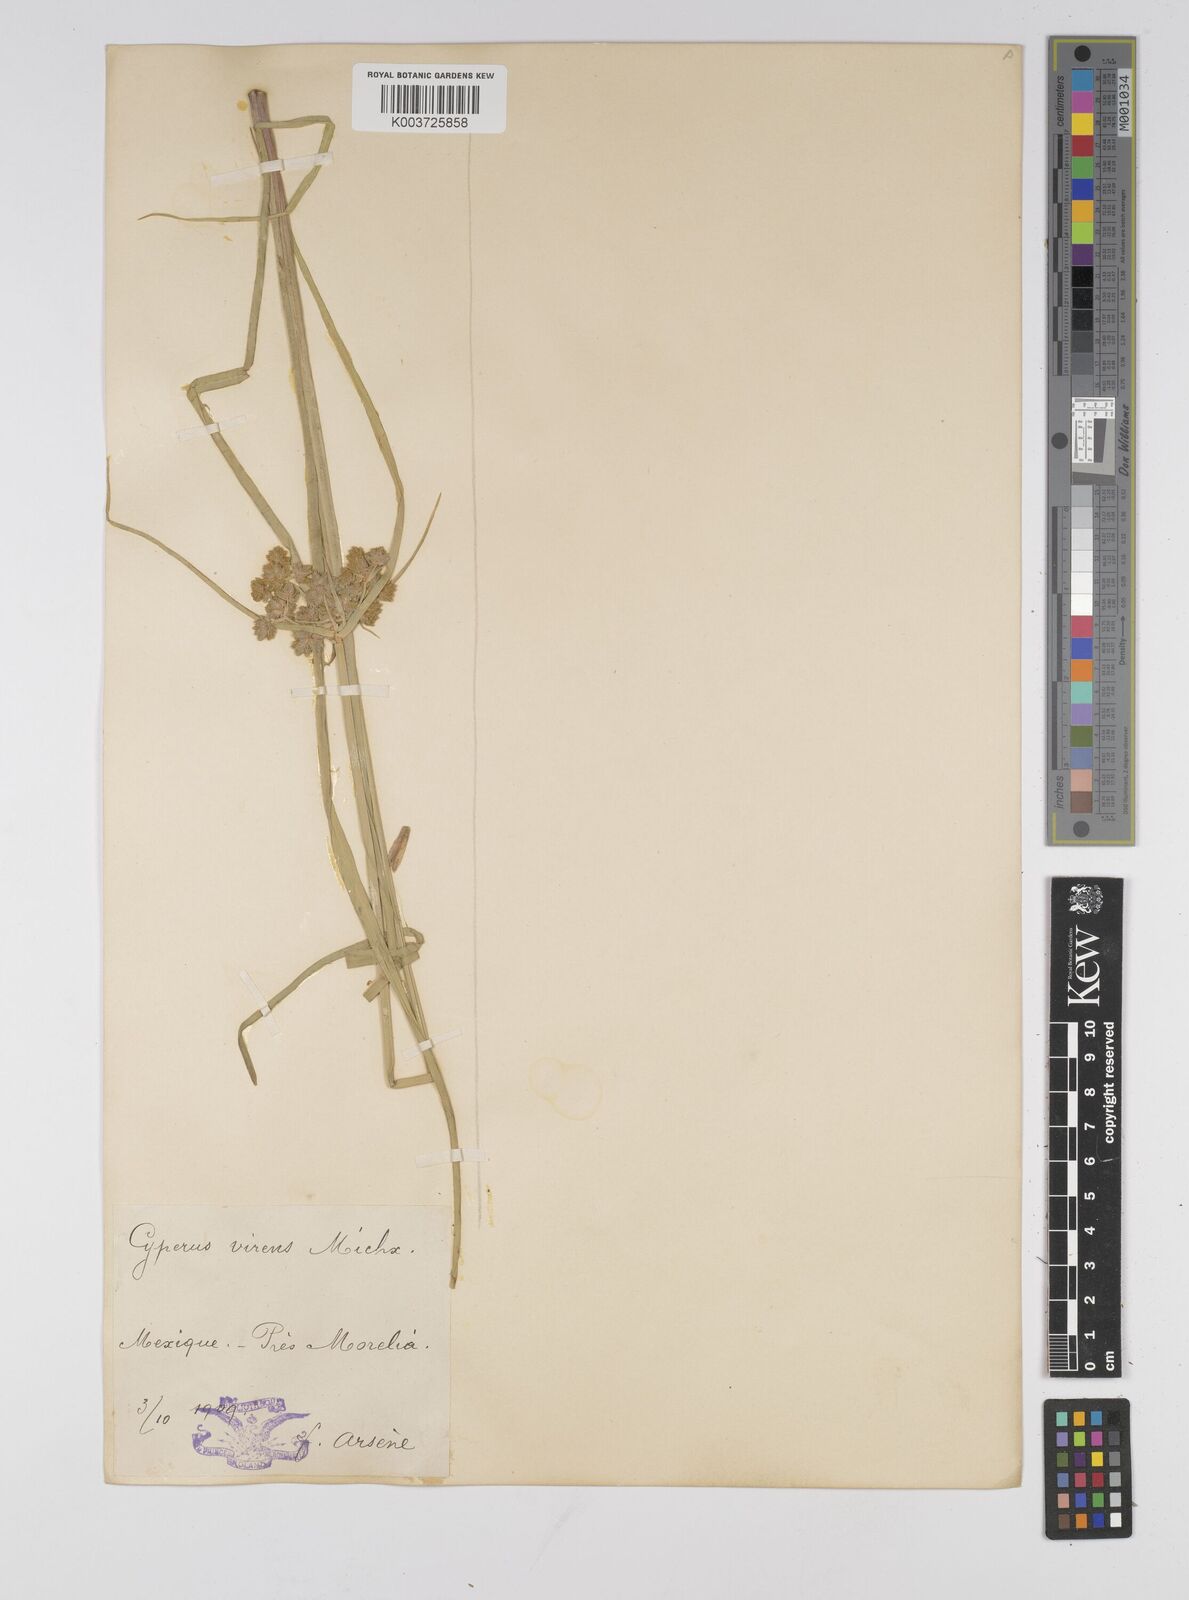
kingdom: Plantae
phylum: Tracheophyta
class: Liliopsida
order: Poales
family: Cyperaceae
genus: Cyperus
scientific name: Cyperus virens
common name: Green flatsedge
